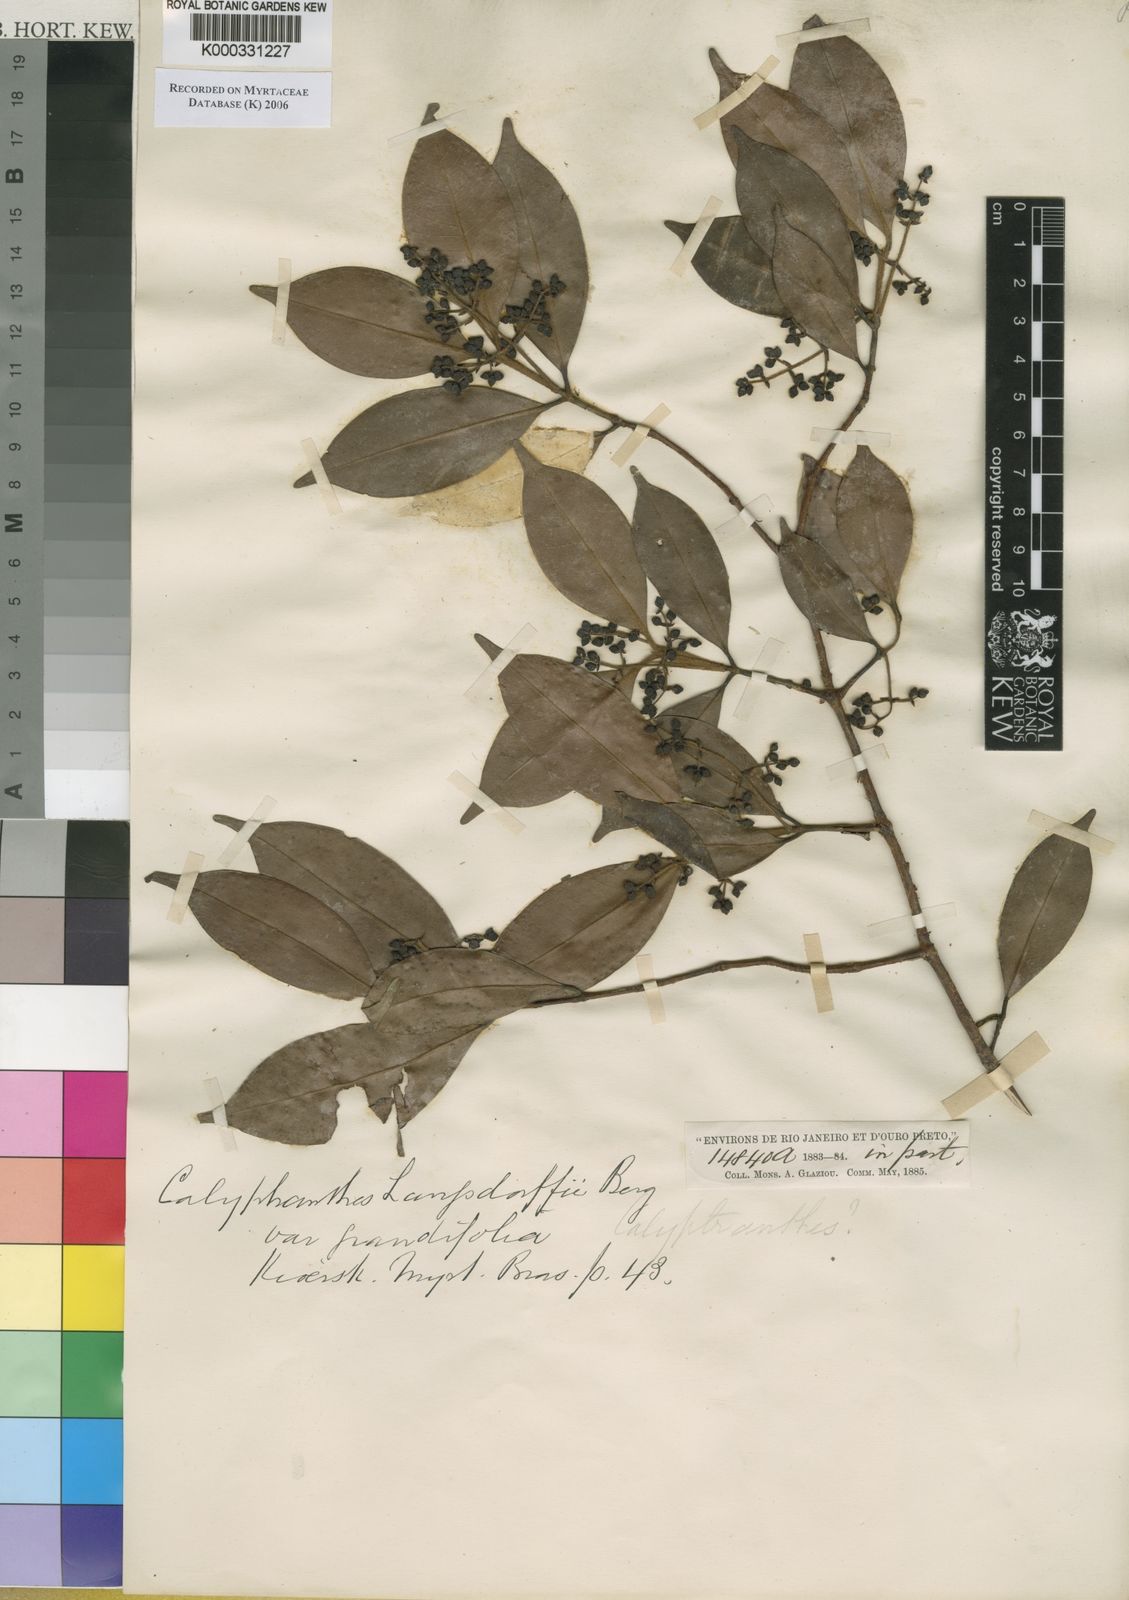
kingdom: Plantae
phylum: Tracheophyta
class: Magnoliopsida
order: Myrtales
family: Myrtaceae
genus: Myrcia
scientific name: Myrcia marliereana
